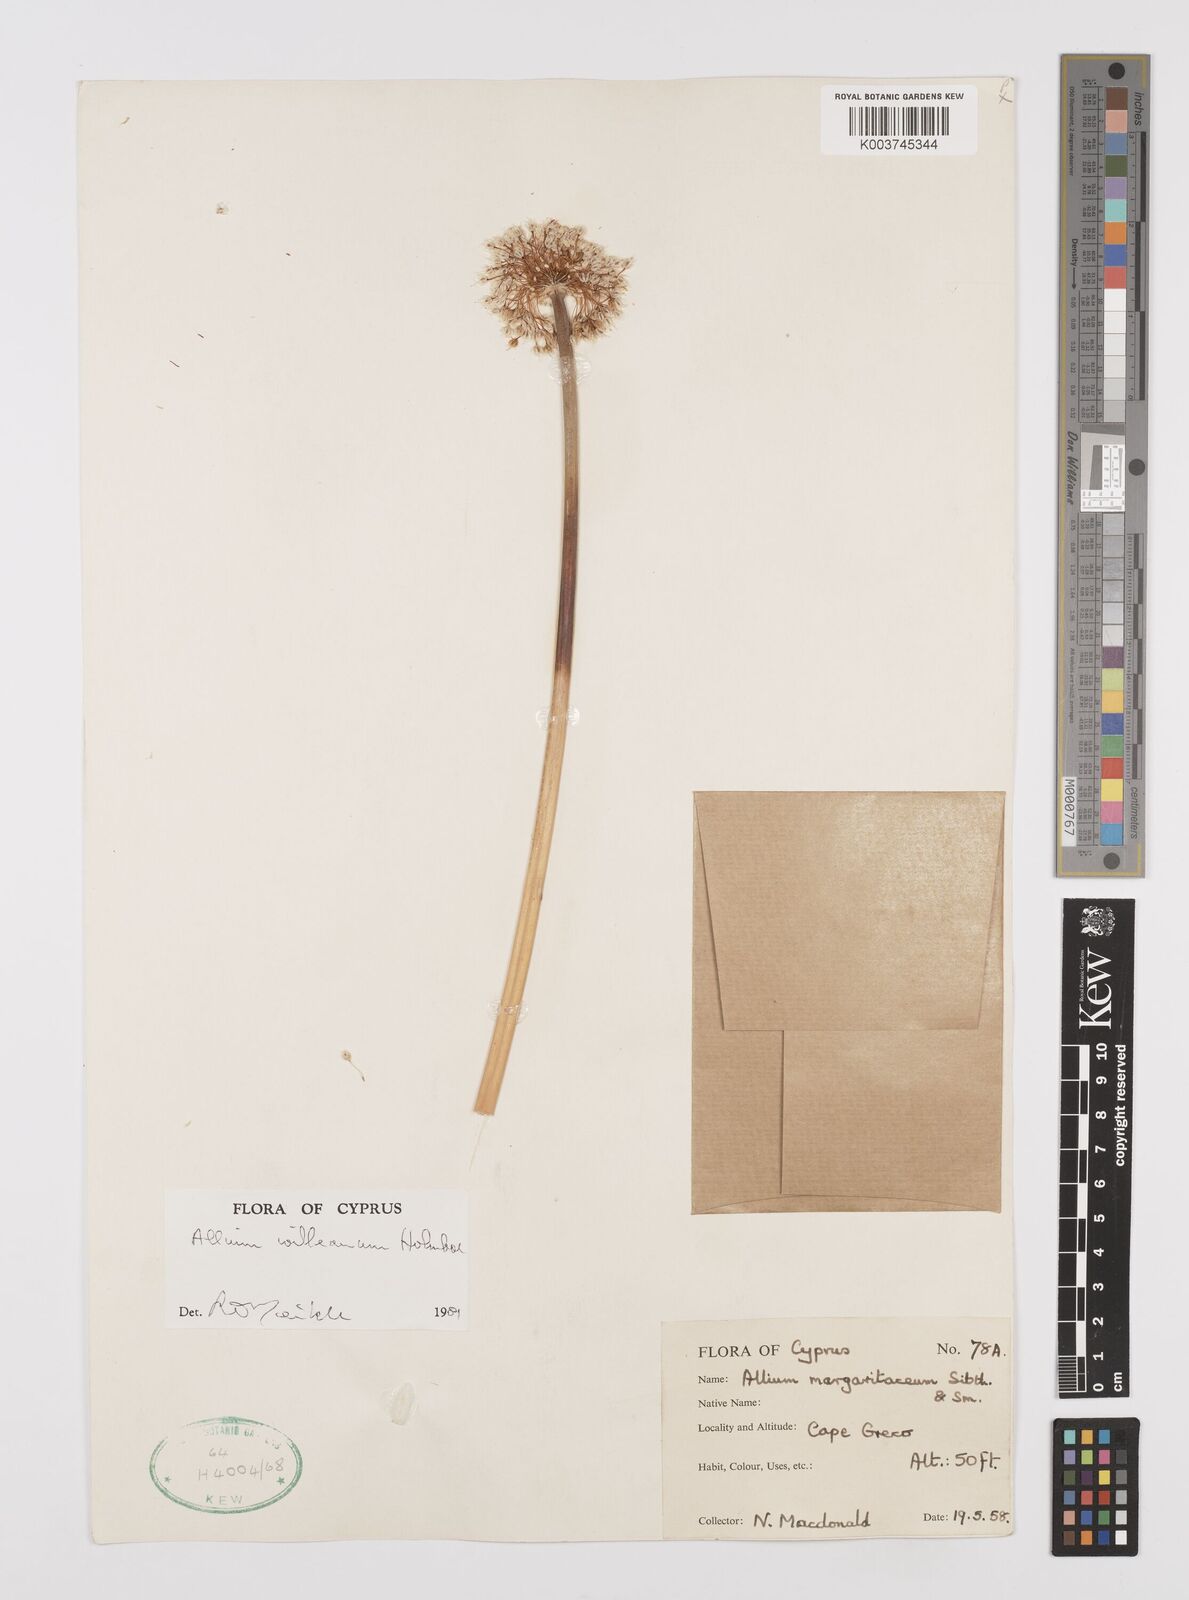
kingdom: Plantae
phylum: Tracheophyta
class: Liliopsida
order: Asparagales
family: Amaryllidaceae
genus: Allium
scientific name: Allium willeanum
